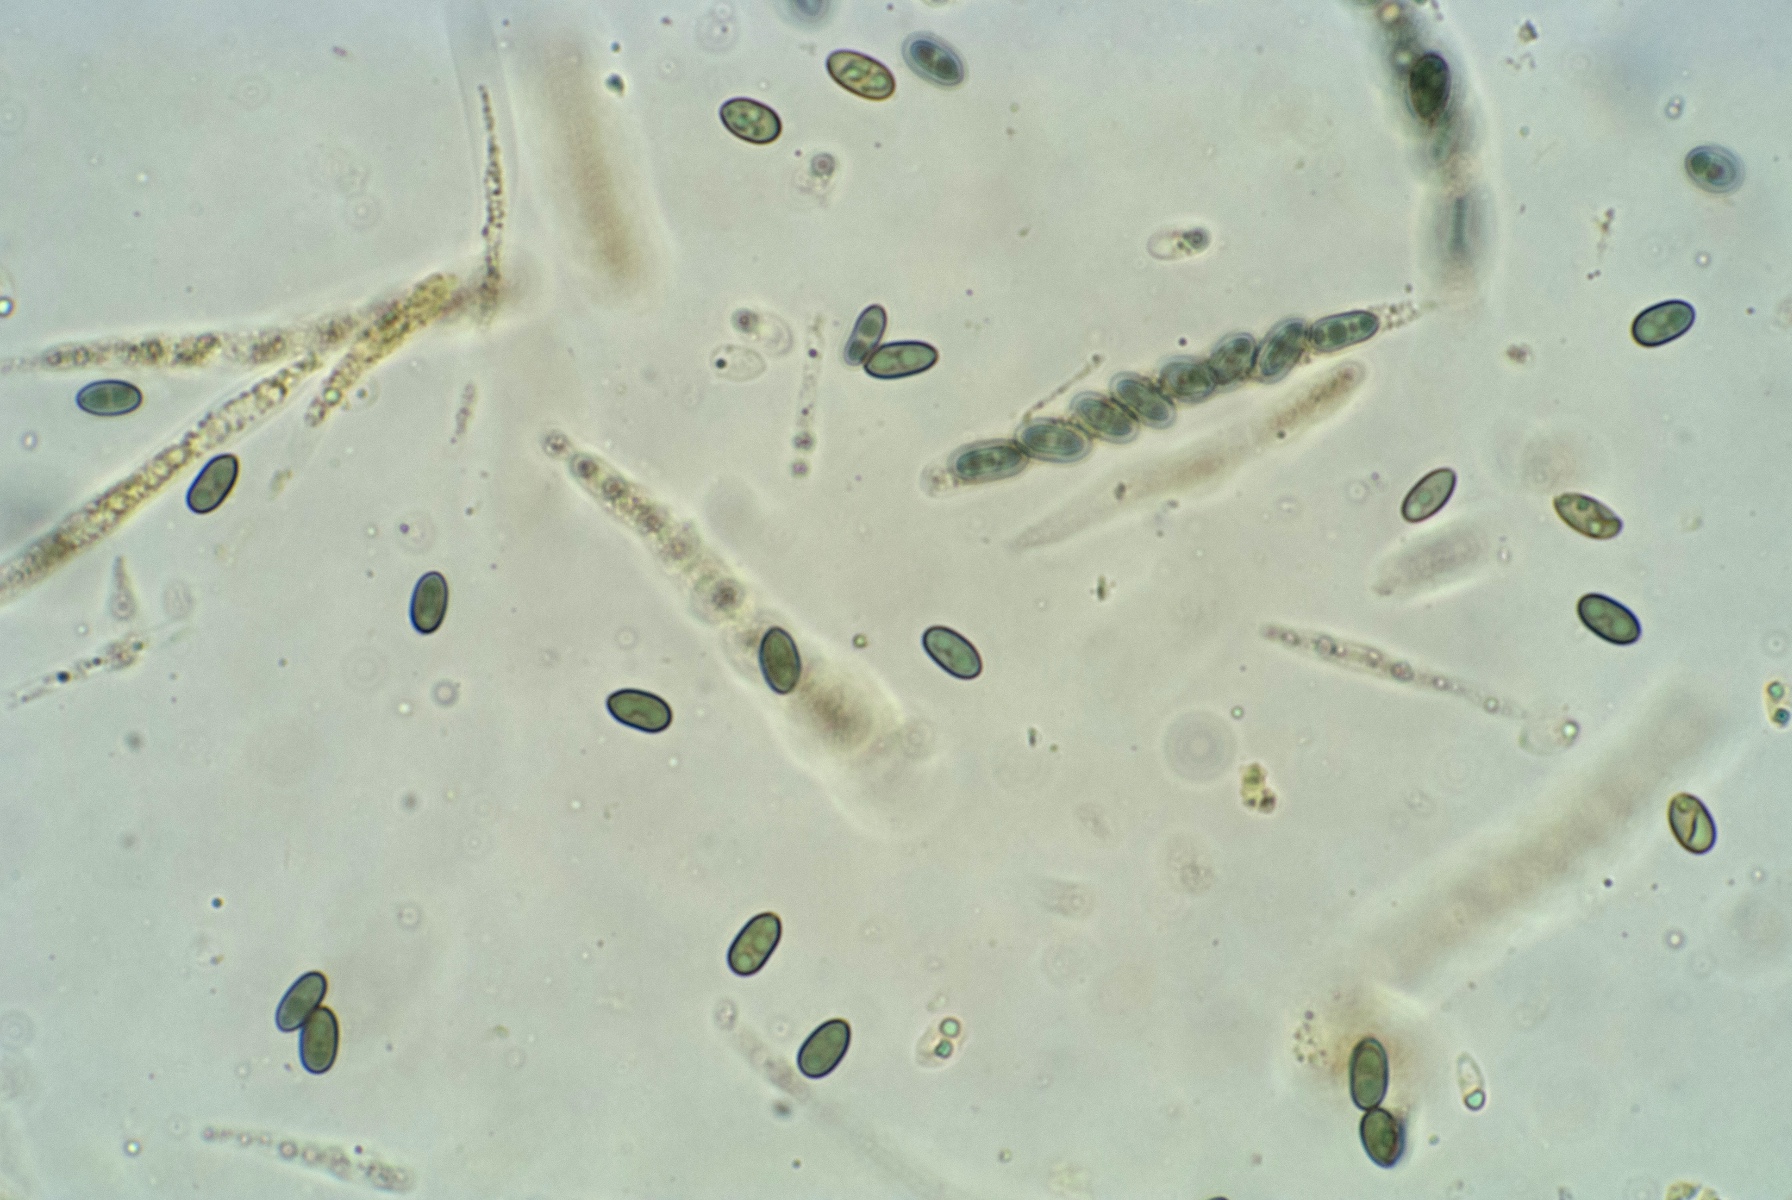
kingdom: Fungi
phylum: Ascomycota
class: Sordariomycetes
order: Boliniales
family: Boliniaceae
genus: Camaropella
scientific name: Camaropella lutea
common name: gulsplint-kulsnegl
